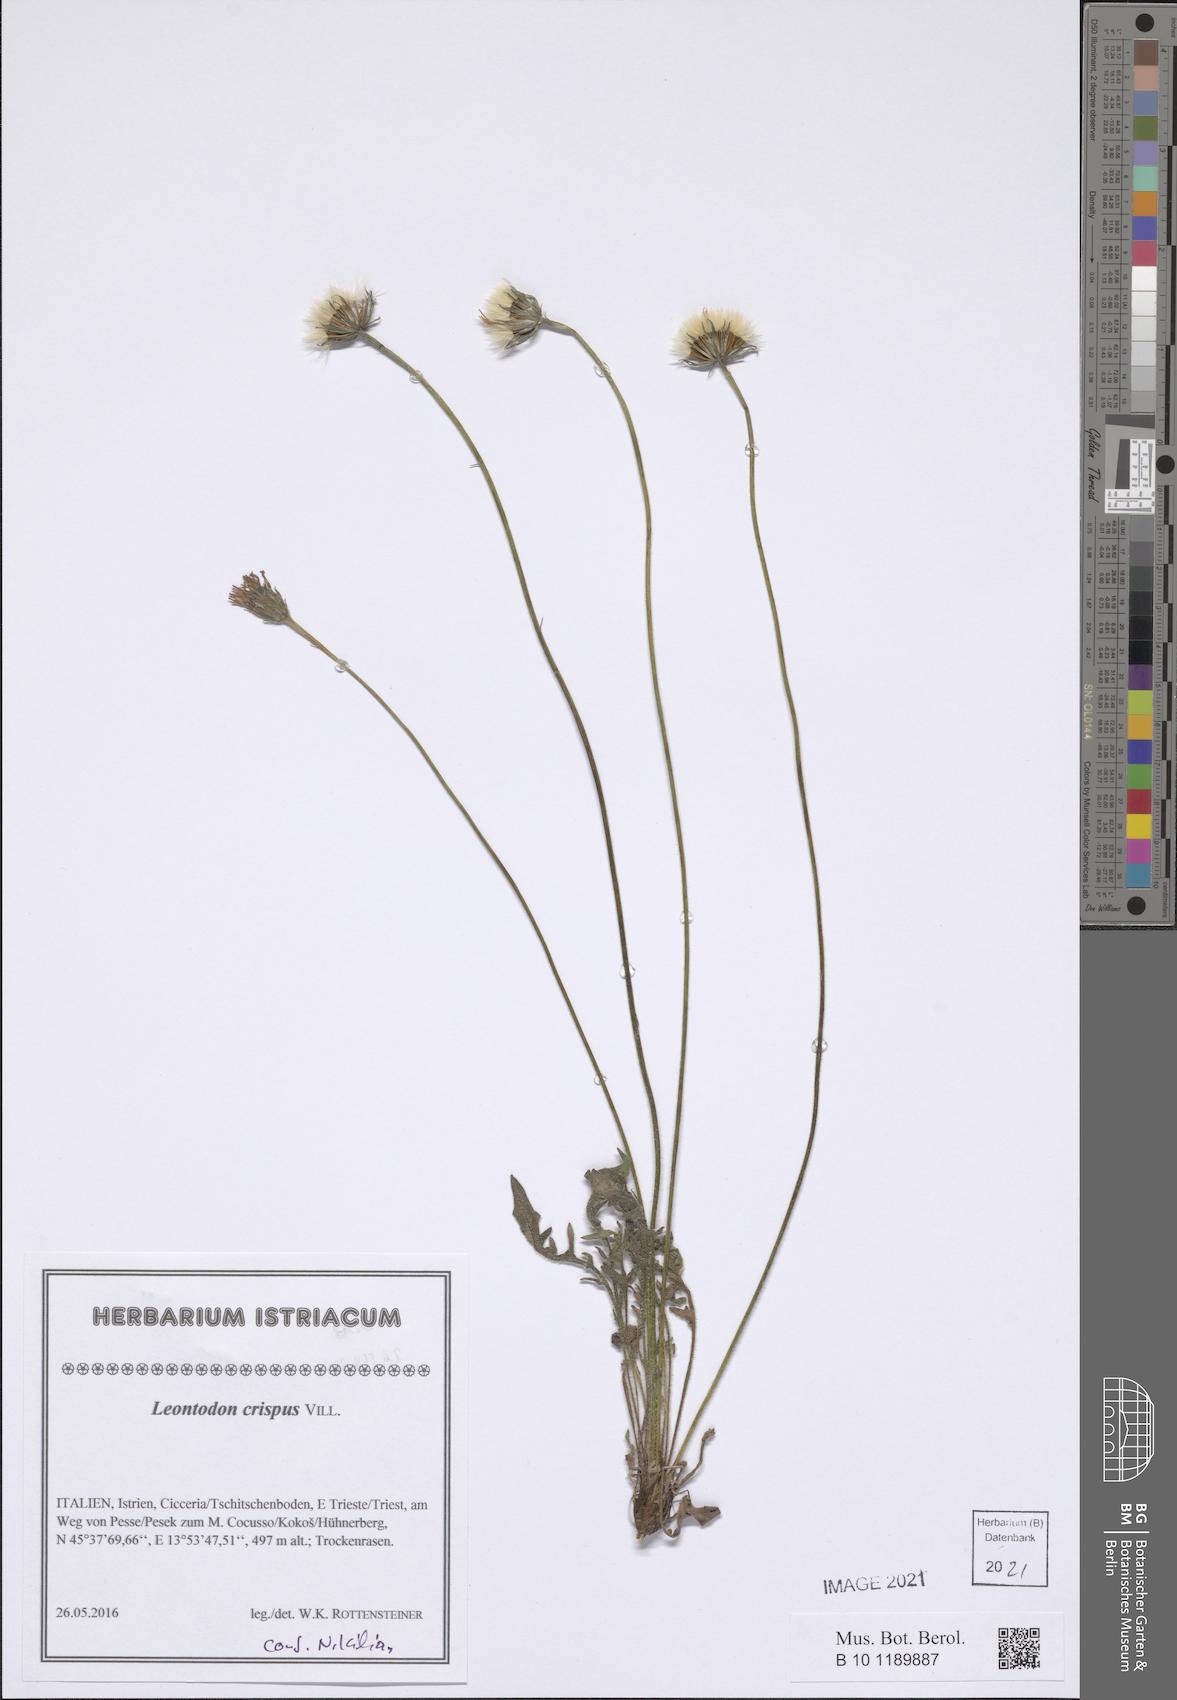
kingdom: Plantae
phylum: Tracheophyta
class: Magnoliopsida
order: Asterales
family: Asteraceae
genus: Leontodon
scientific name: Leontodon crispus
